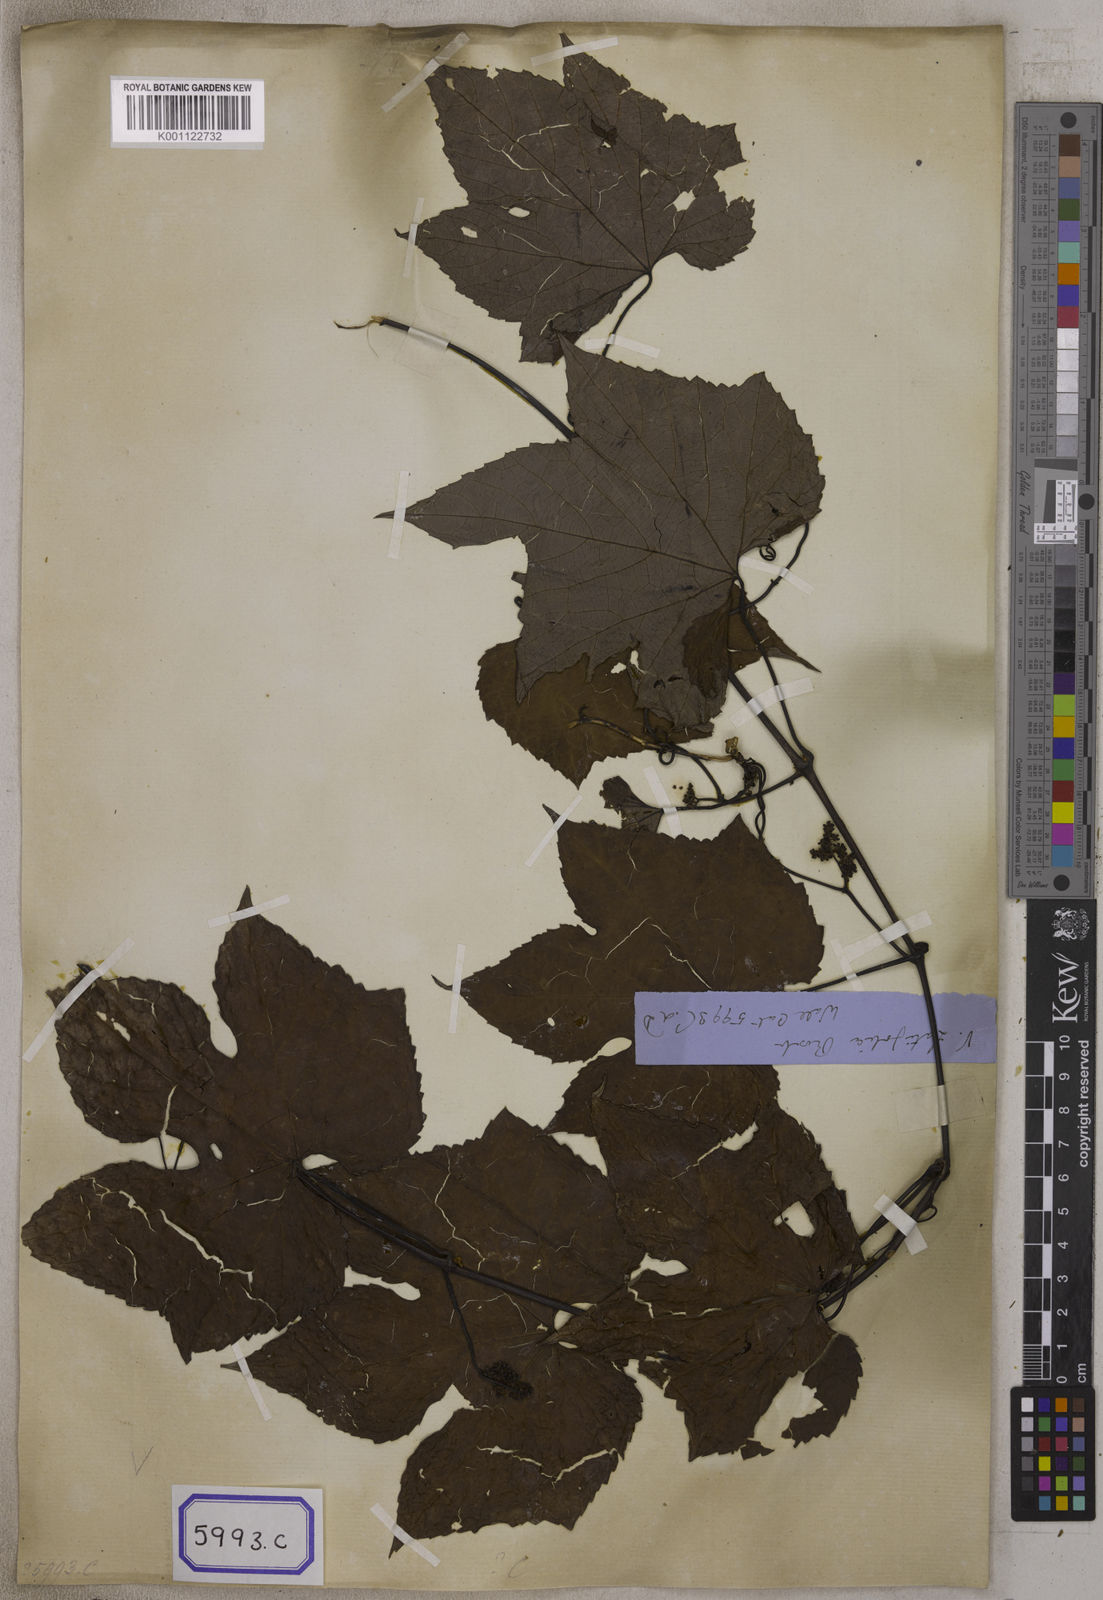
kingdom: Plantae
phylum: Tracheophyta
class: Magnoliopsida
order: Vitales
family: Vitaceae
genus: Ampelocissus
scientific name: Ampelocissus indica
